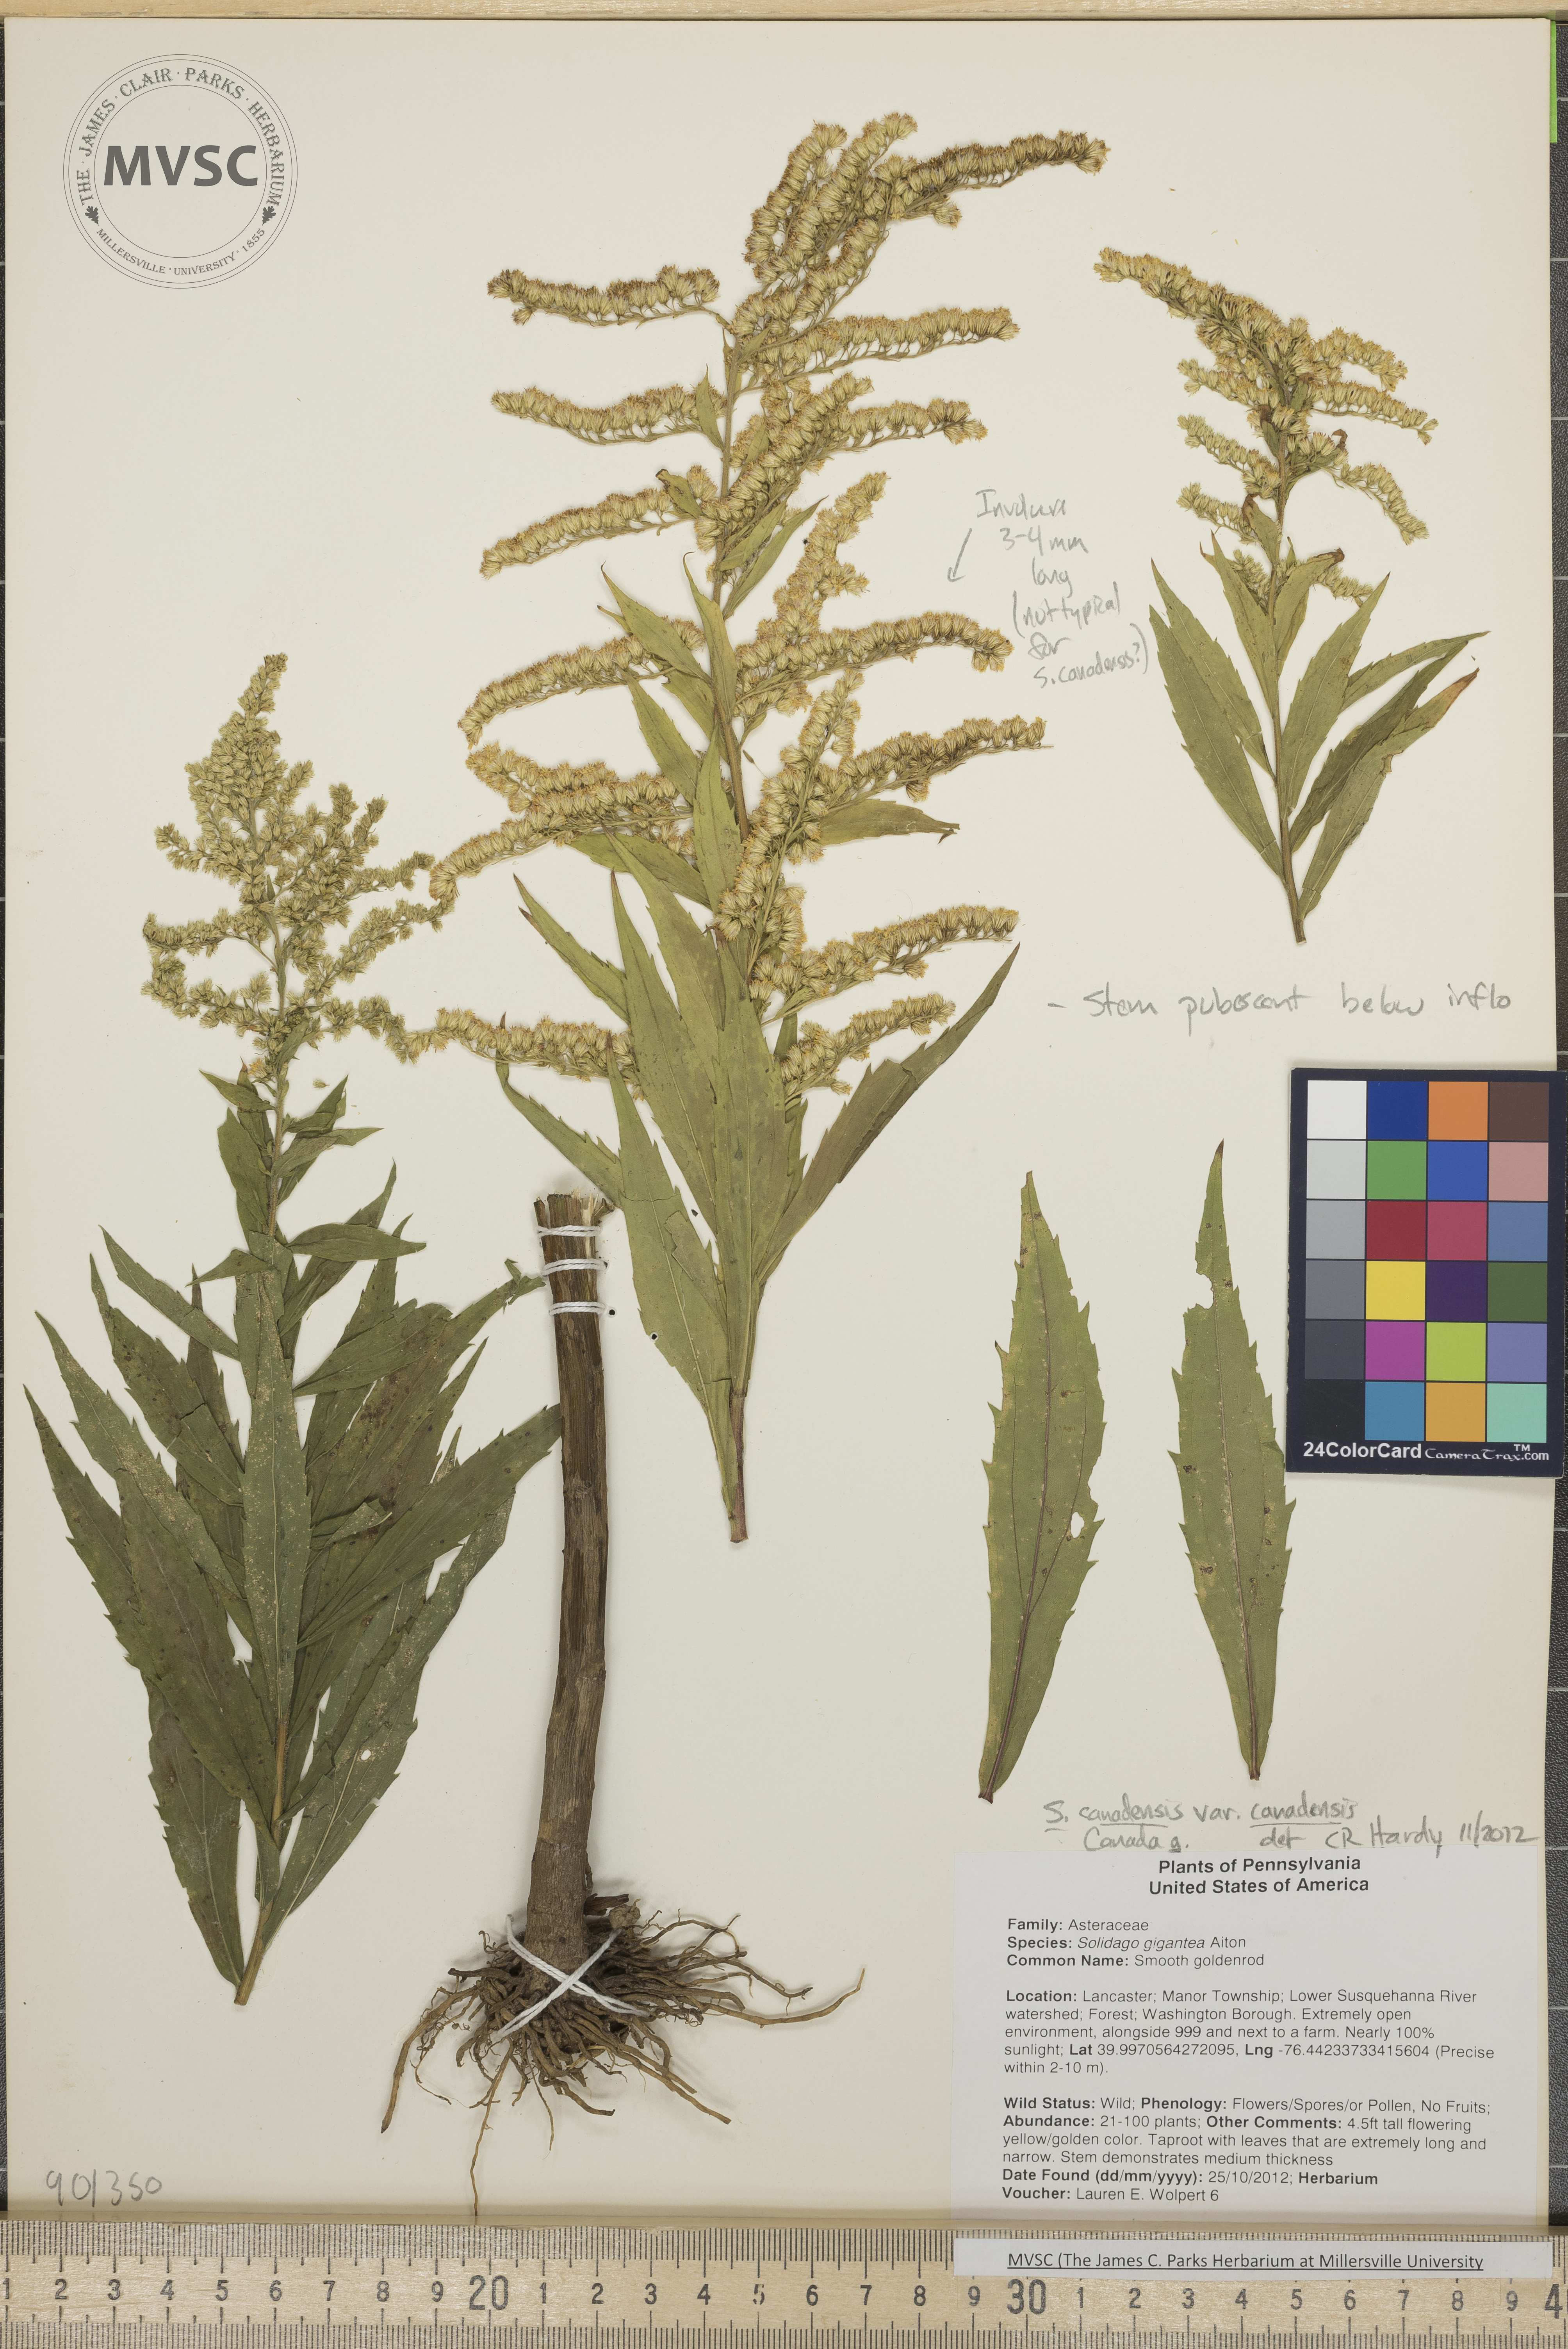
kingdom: Plantae
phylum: Tracheophyta
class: Magnoliopsida
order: Asterales
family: Asteraceae
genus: Solidago
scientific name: Solidago canadensis
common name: Canada Goldenrod
